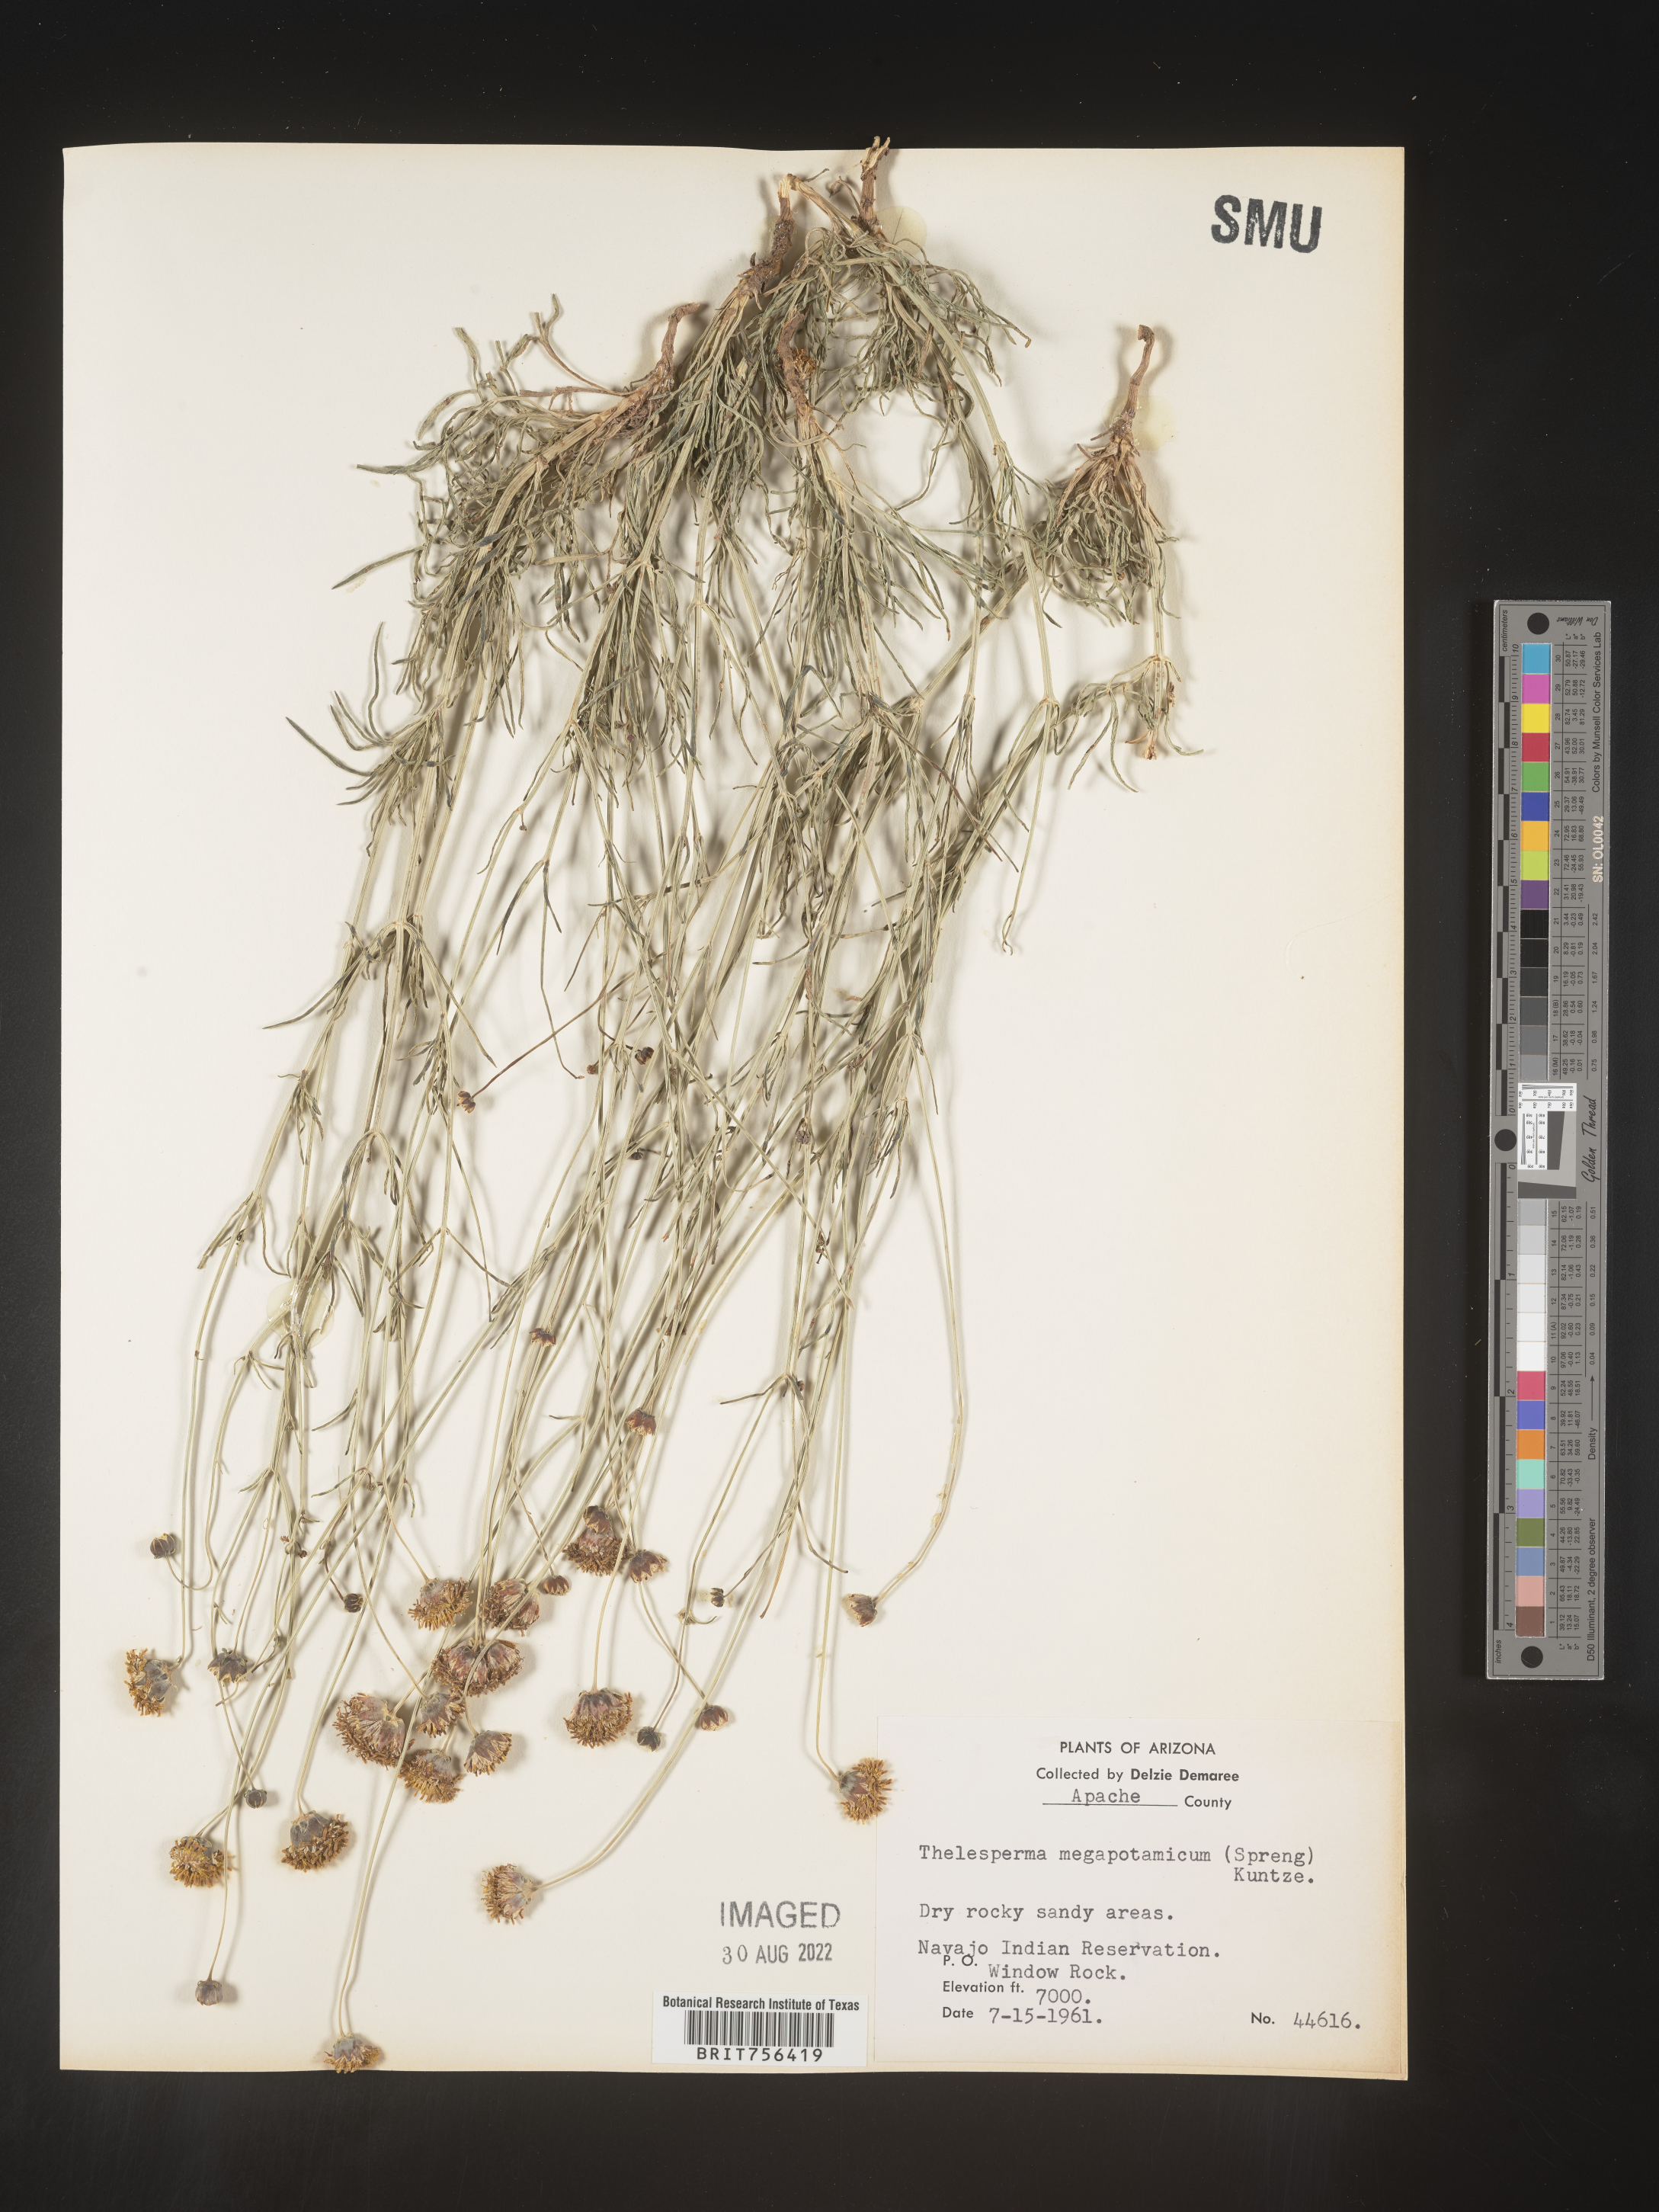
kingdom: Plantae
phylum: Tracheophyta
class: Magnoliopsida
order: Asterales
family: Asteraceae
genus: Thelesperma
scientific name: Thelesperma megapotamicum
